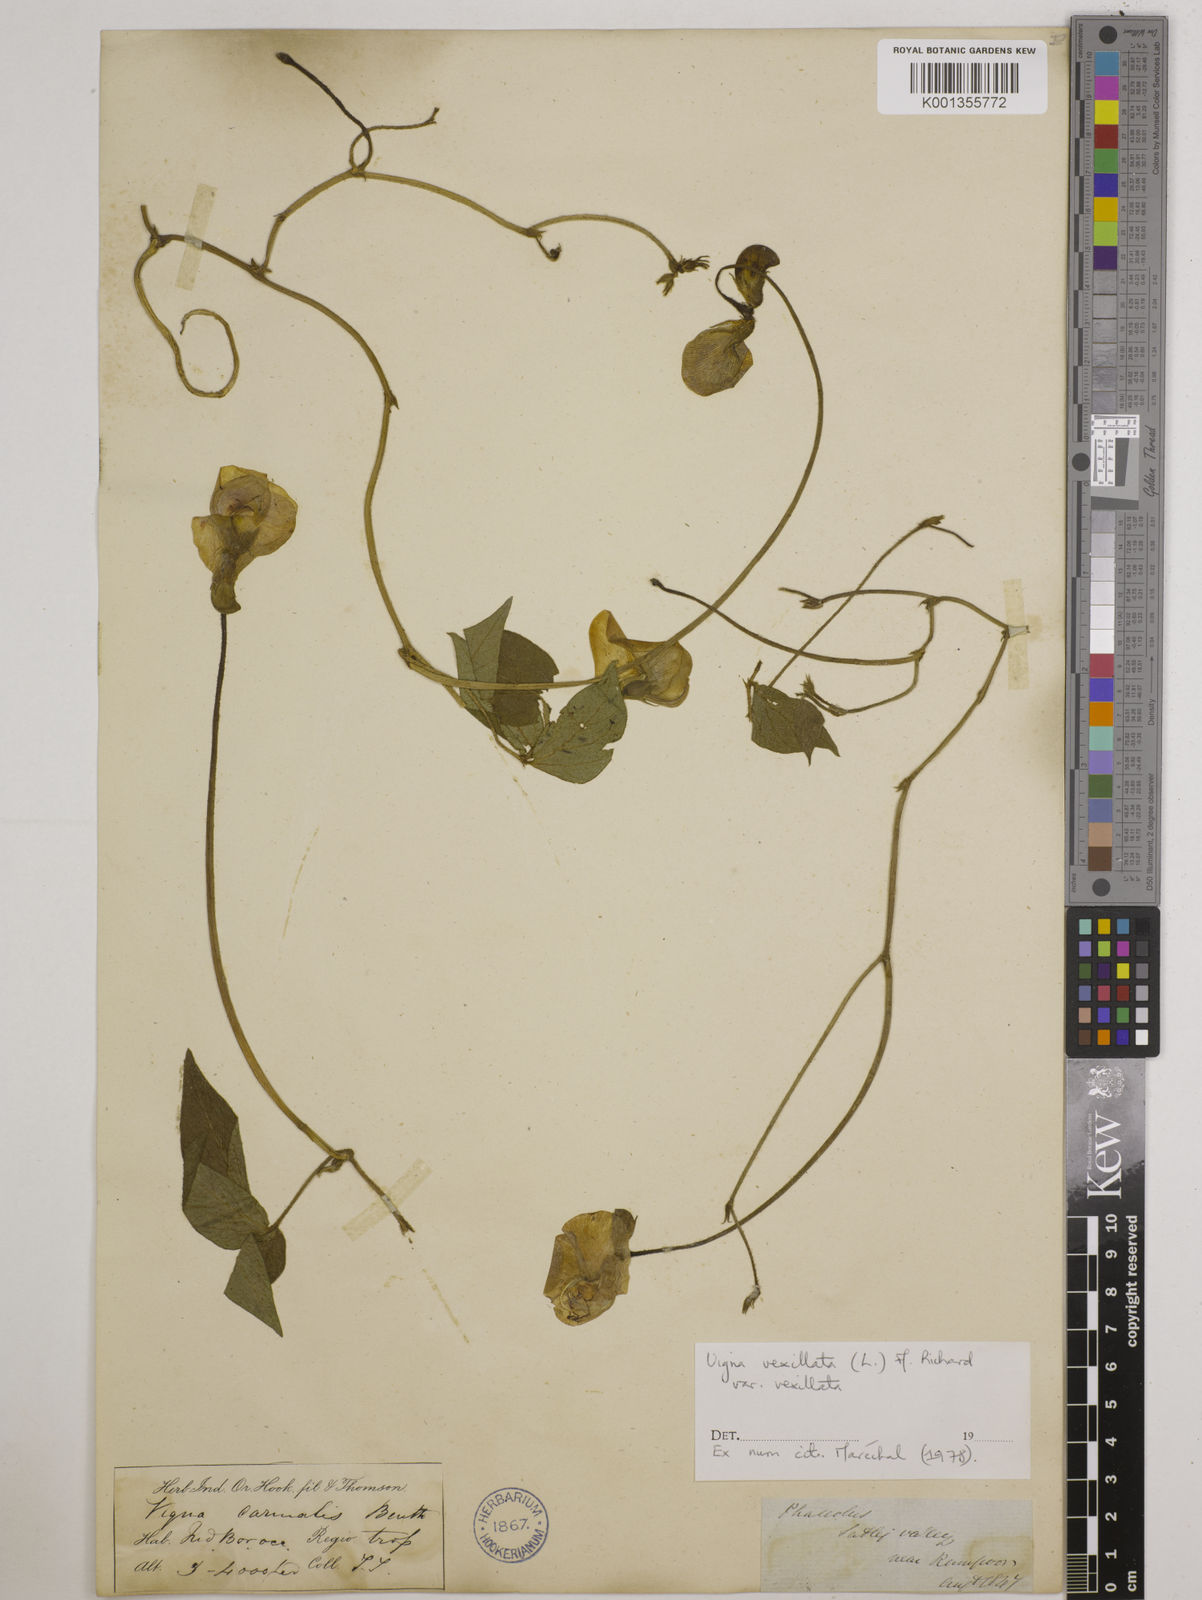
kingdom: Plantae
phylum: Tracheophyta
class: Magnoliopsida
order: Fabales
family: Fabaceae
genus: Vigna
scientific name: Vigna vexillata
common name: Zombi pea
